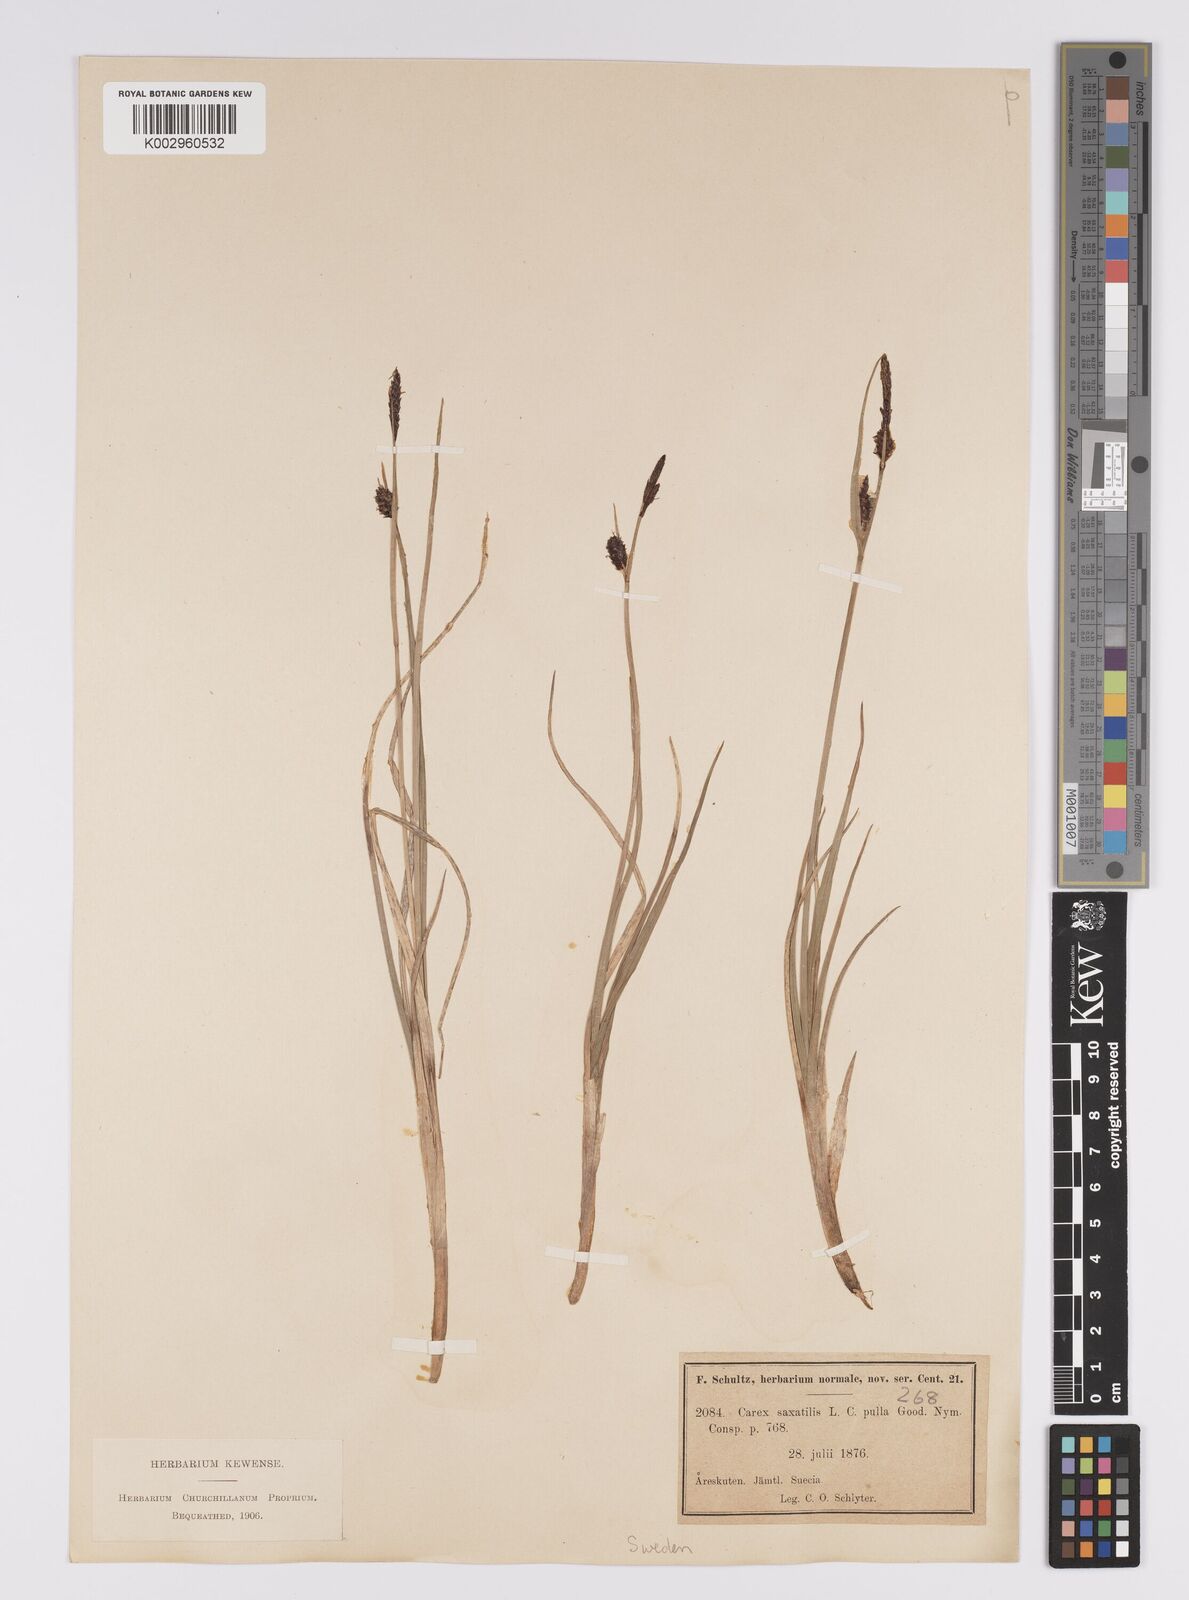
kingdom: Plantae
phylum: Tracheophyta
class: Liliopsida
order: Poales
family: Cyperaceae
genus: Carex
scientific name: Carex saxatilis
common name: Russet sedge
